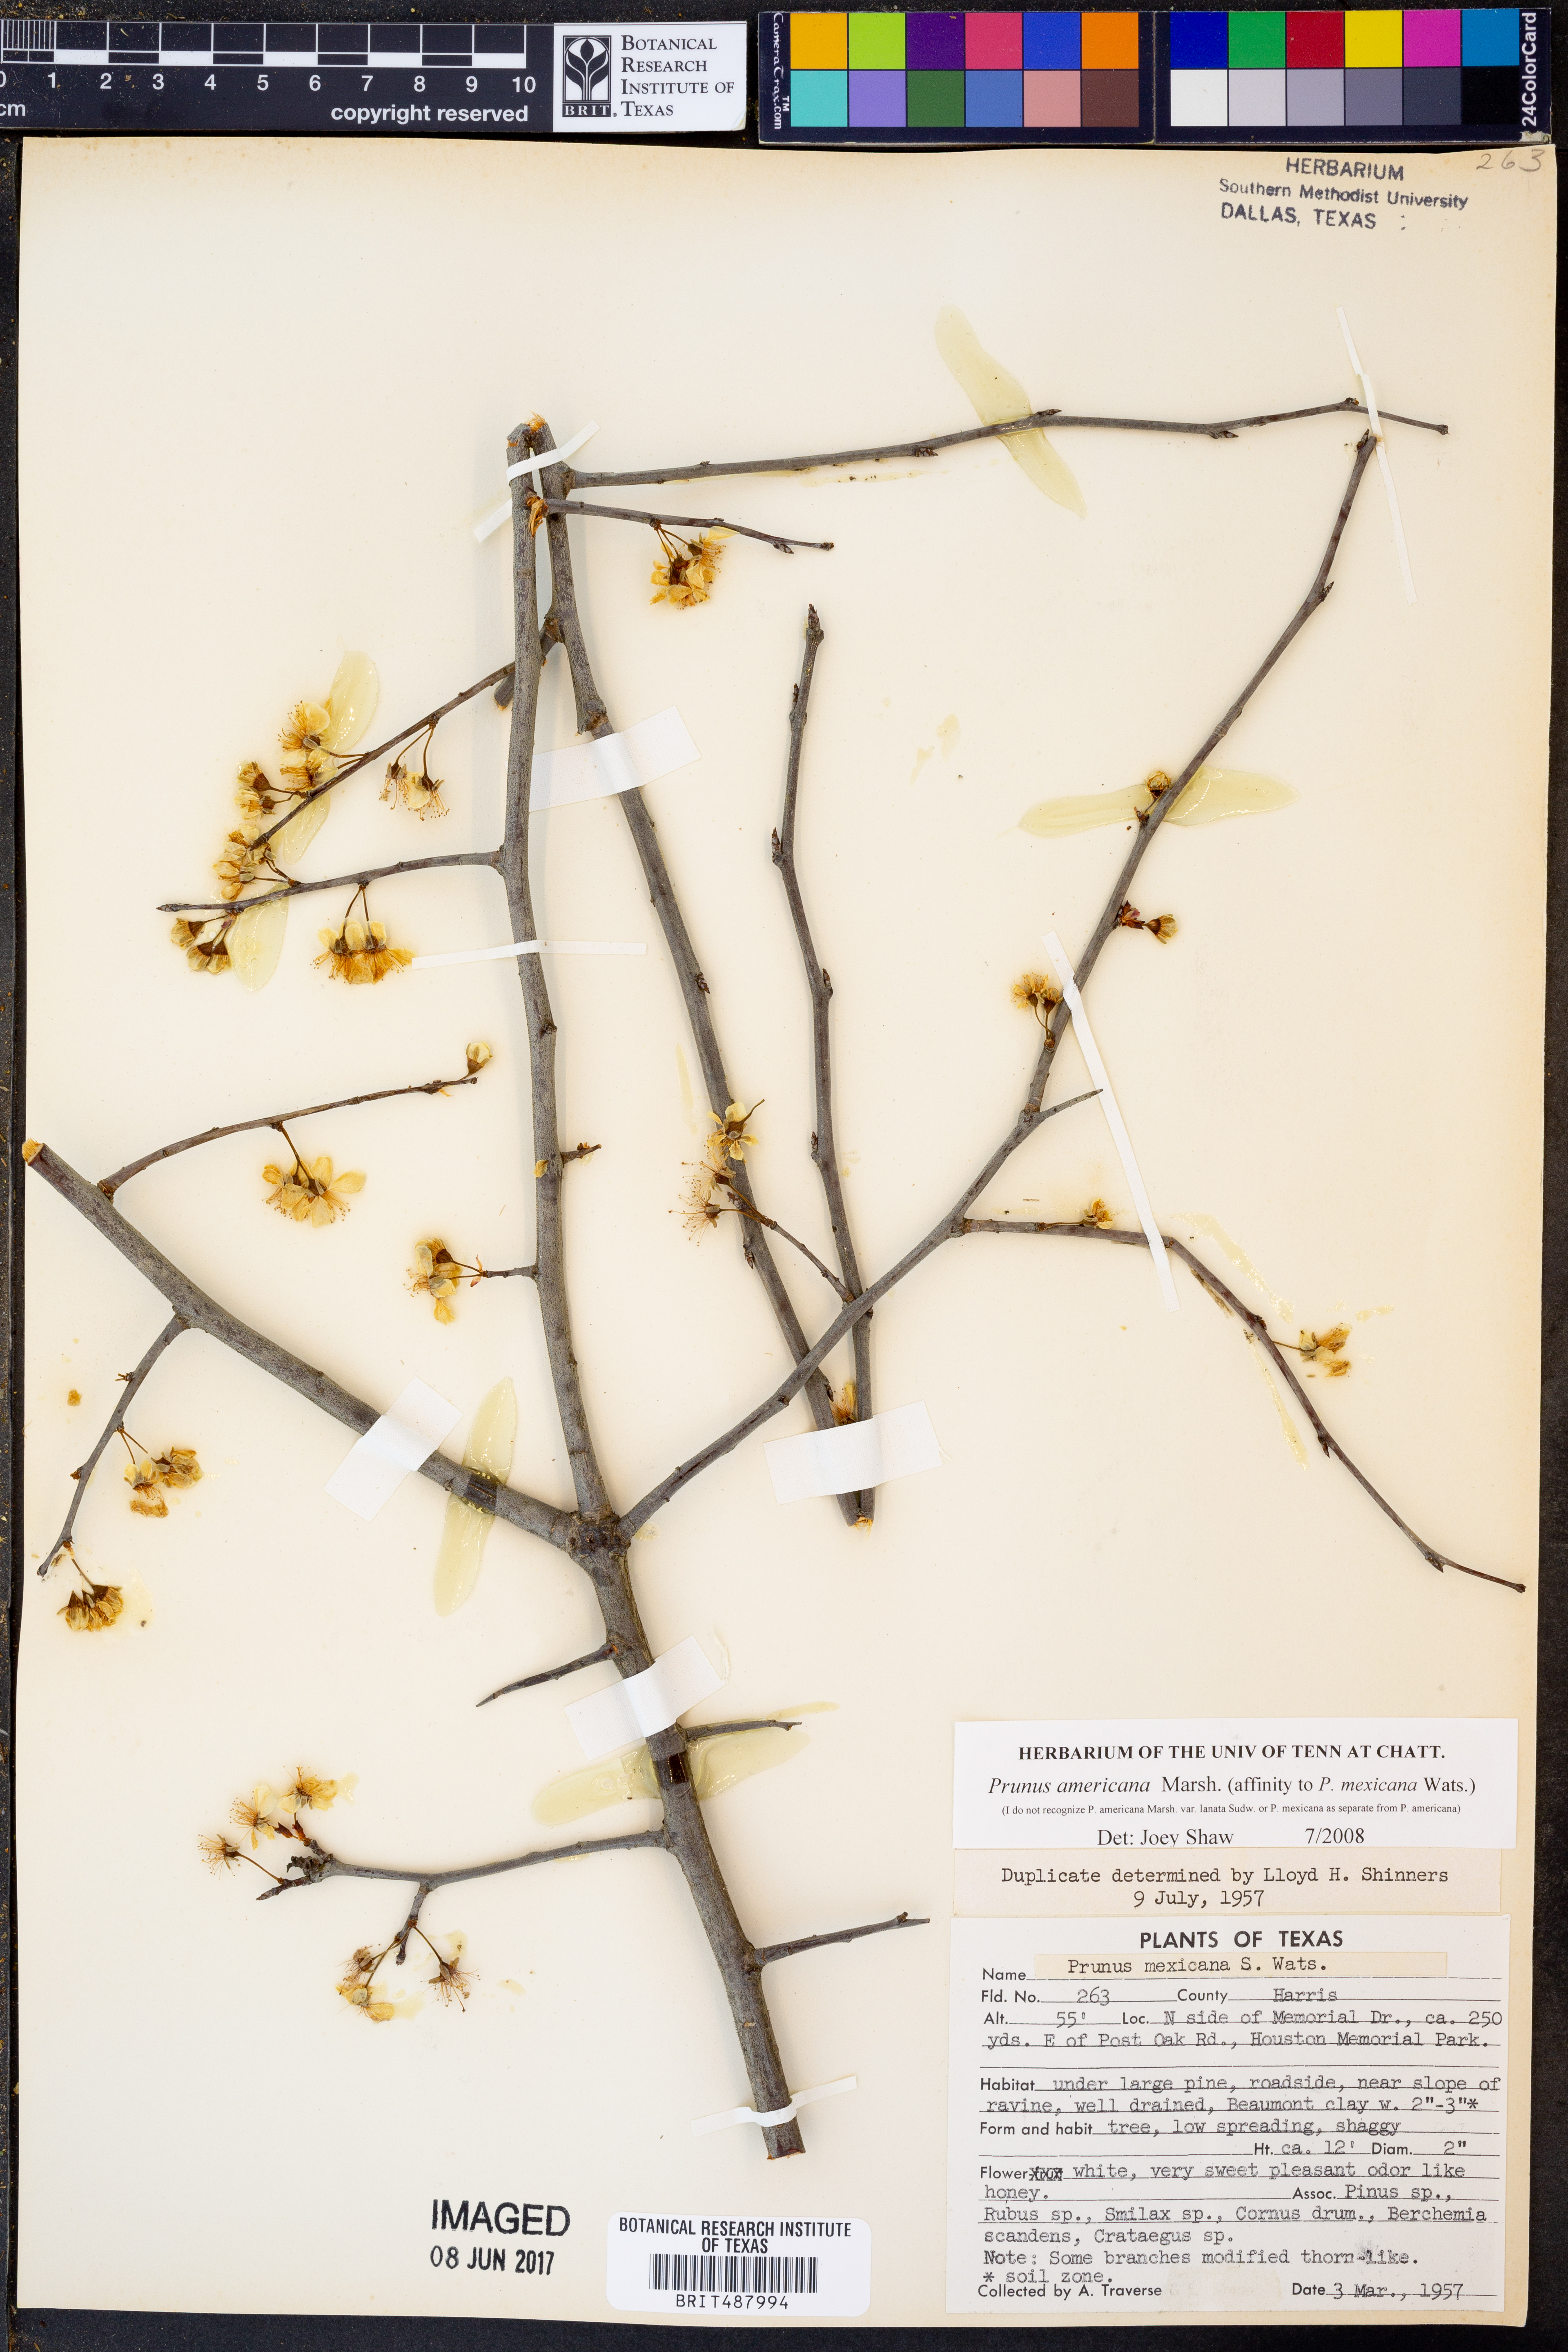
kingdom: Plantae
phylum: Tracheophyta
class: Magnoliopsida
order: Rosales
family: Rosaceae
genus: Prunus
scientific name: Prunus americana
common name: American plum
